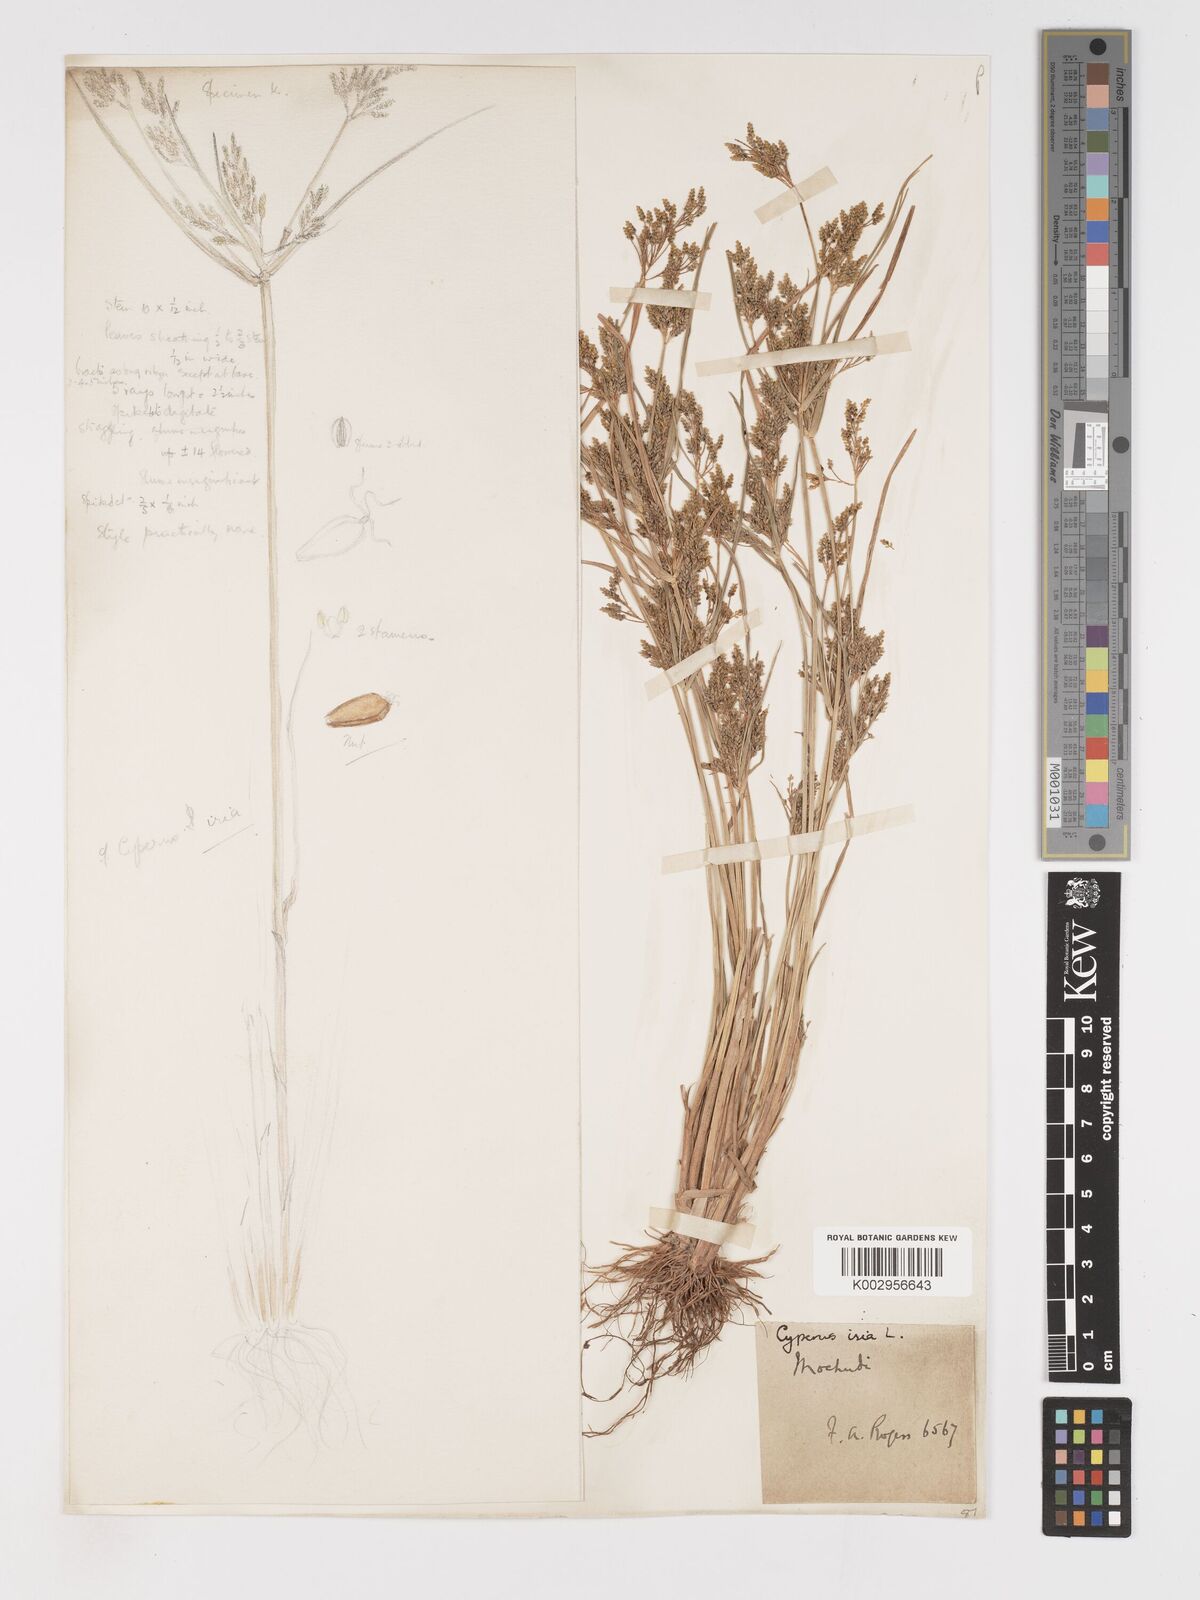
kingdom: Plantae
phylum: Tracheophyta
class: Liliopsida
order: Poales
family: Cyperaceae
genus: Cyperus
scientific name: Cyperus iria
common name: Ricefield flatsedge
